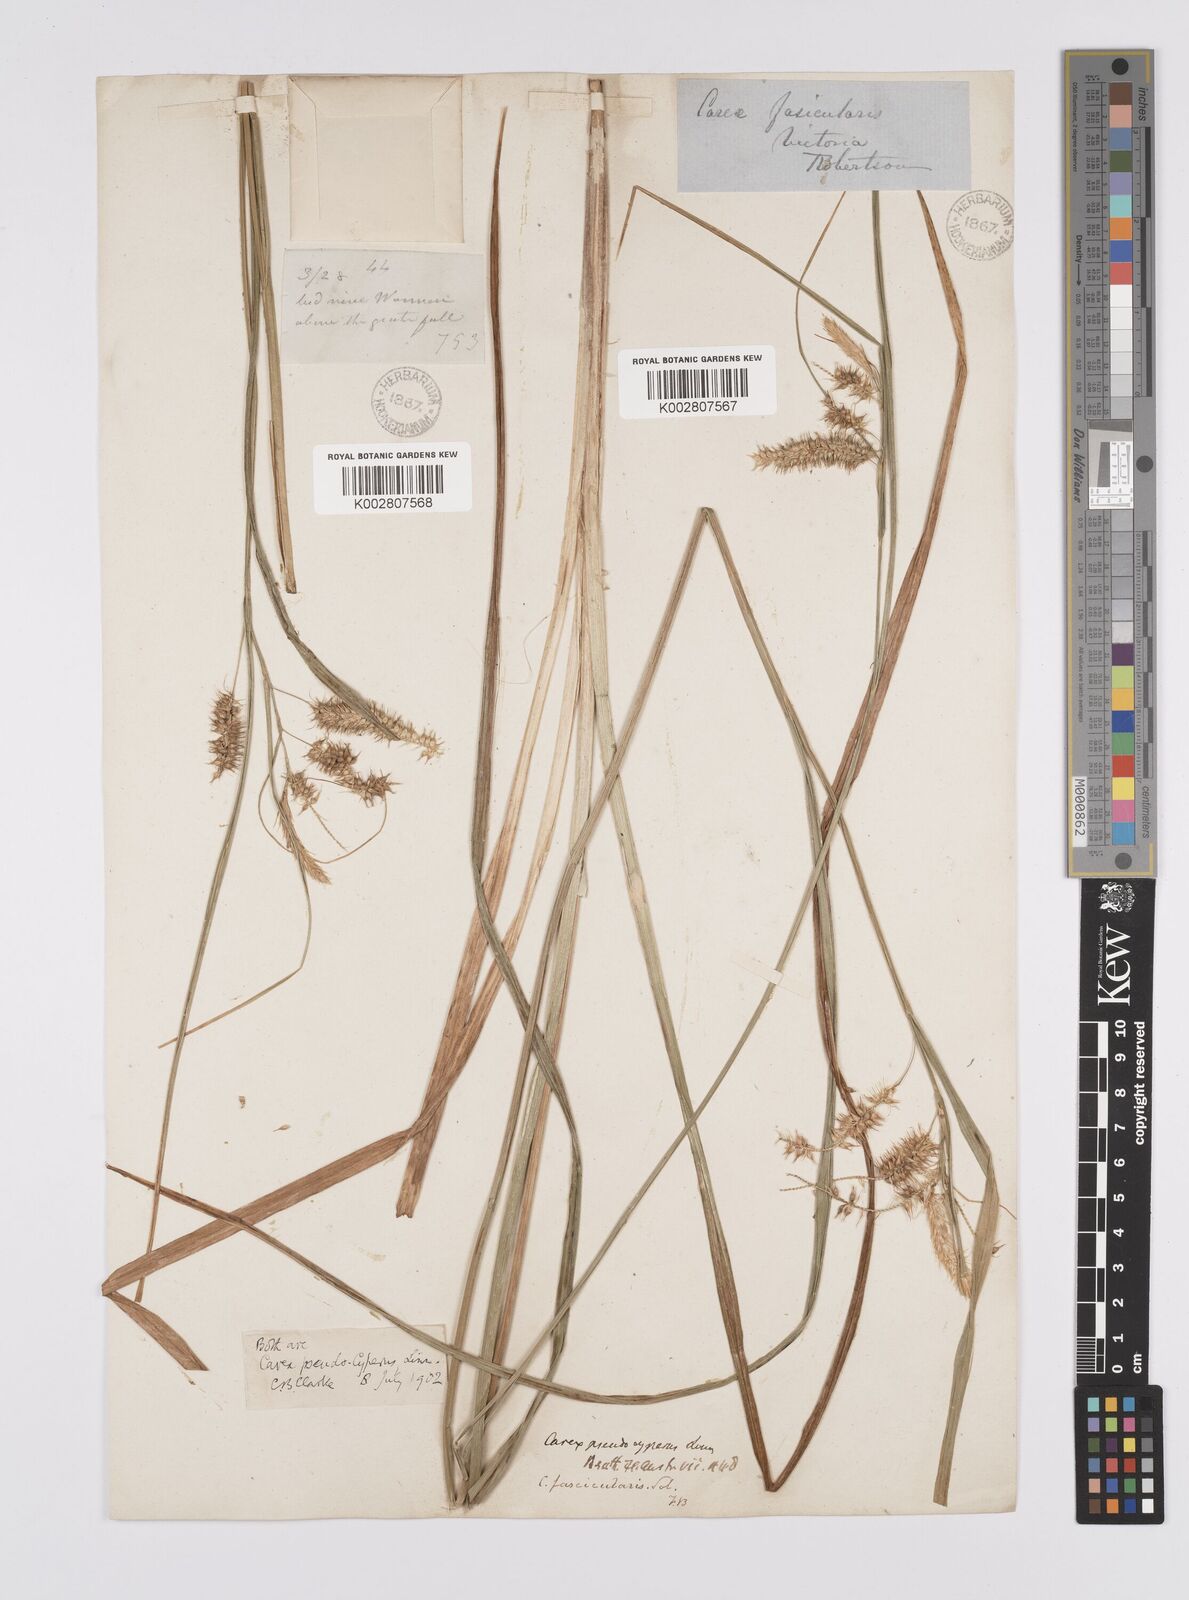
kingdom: Plantae
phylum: Tracheophyta
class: Liliopsida
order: Poales
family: Cyperaceae
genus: Carex
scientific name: Carex fascicularis
